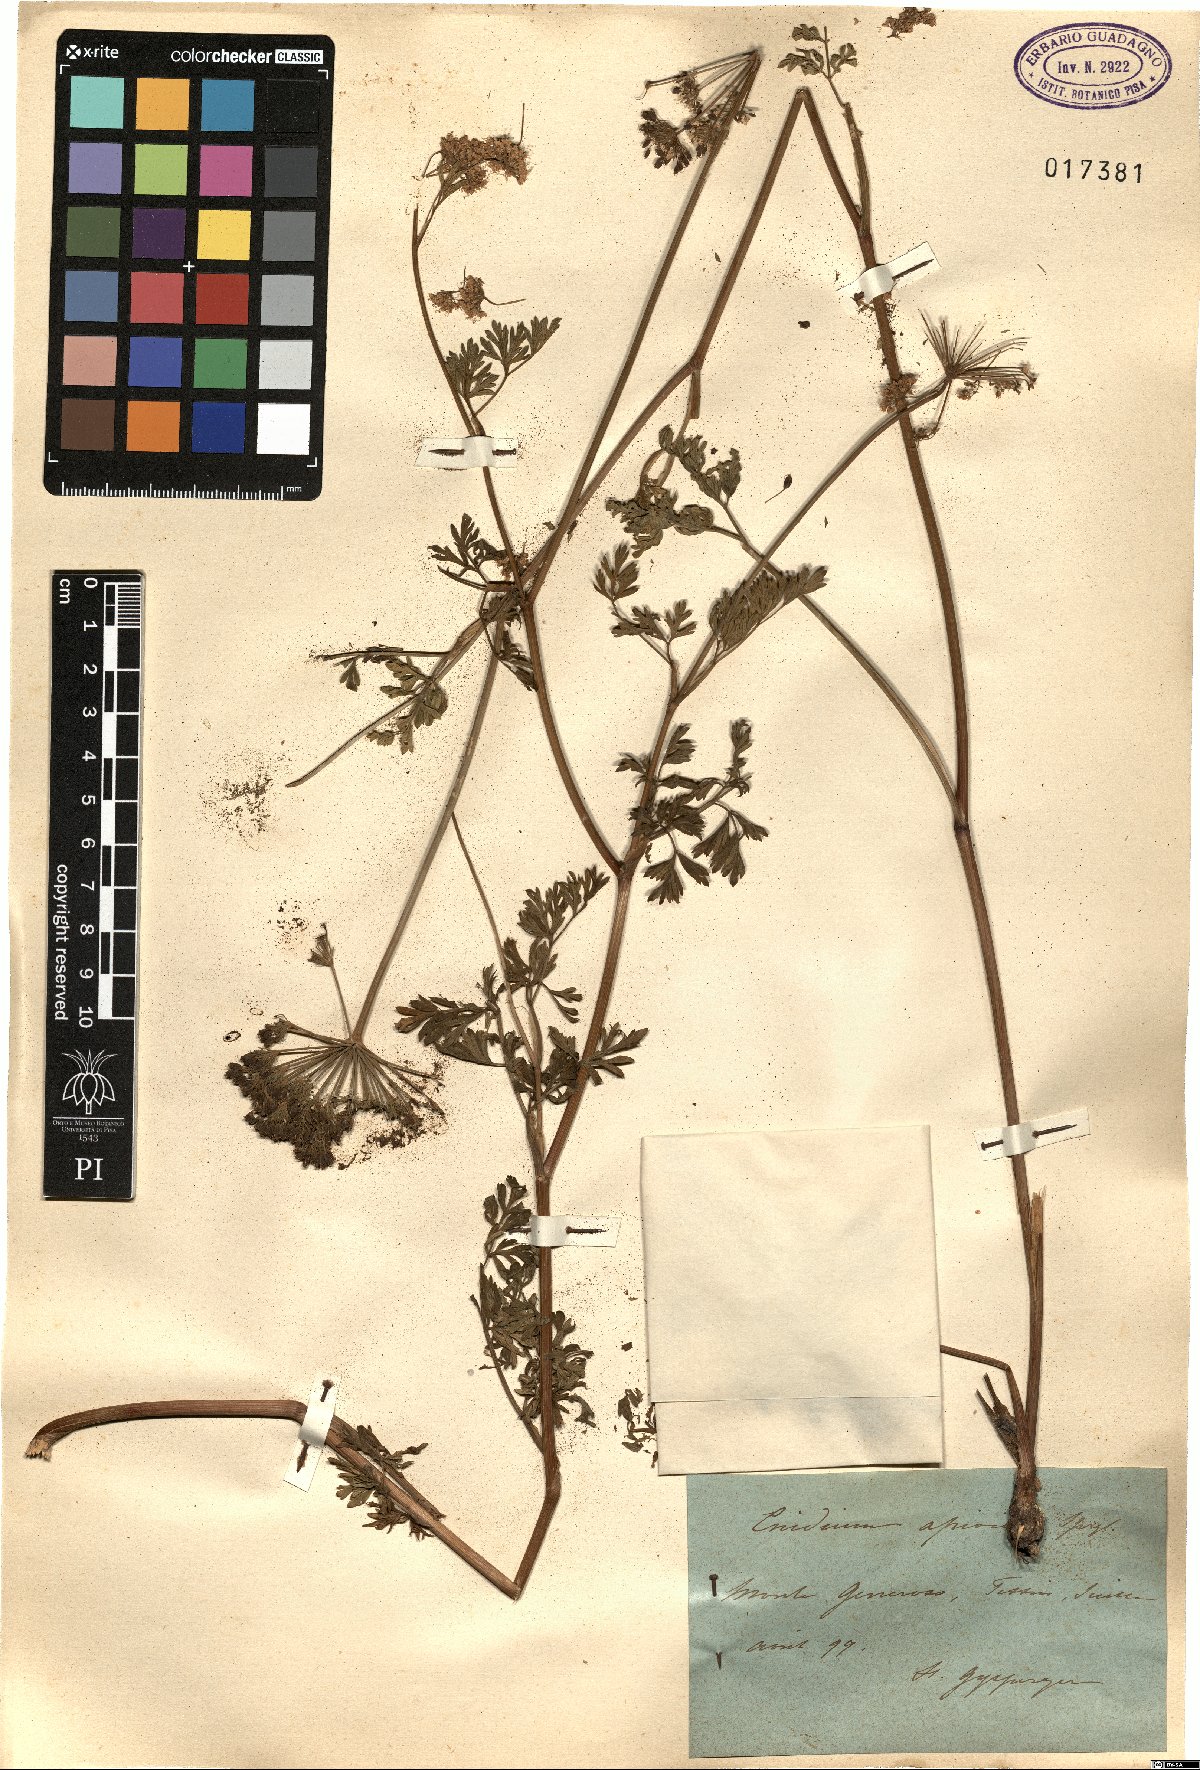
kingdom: Plantae
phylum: Tracheophyta
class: Magnoliopsida
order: Apiales
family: Apiaceae
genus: Katapsuxis
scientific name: Katapsuxis silaifolia
